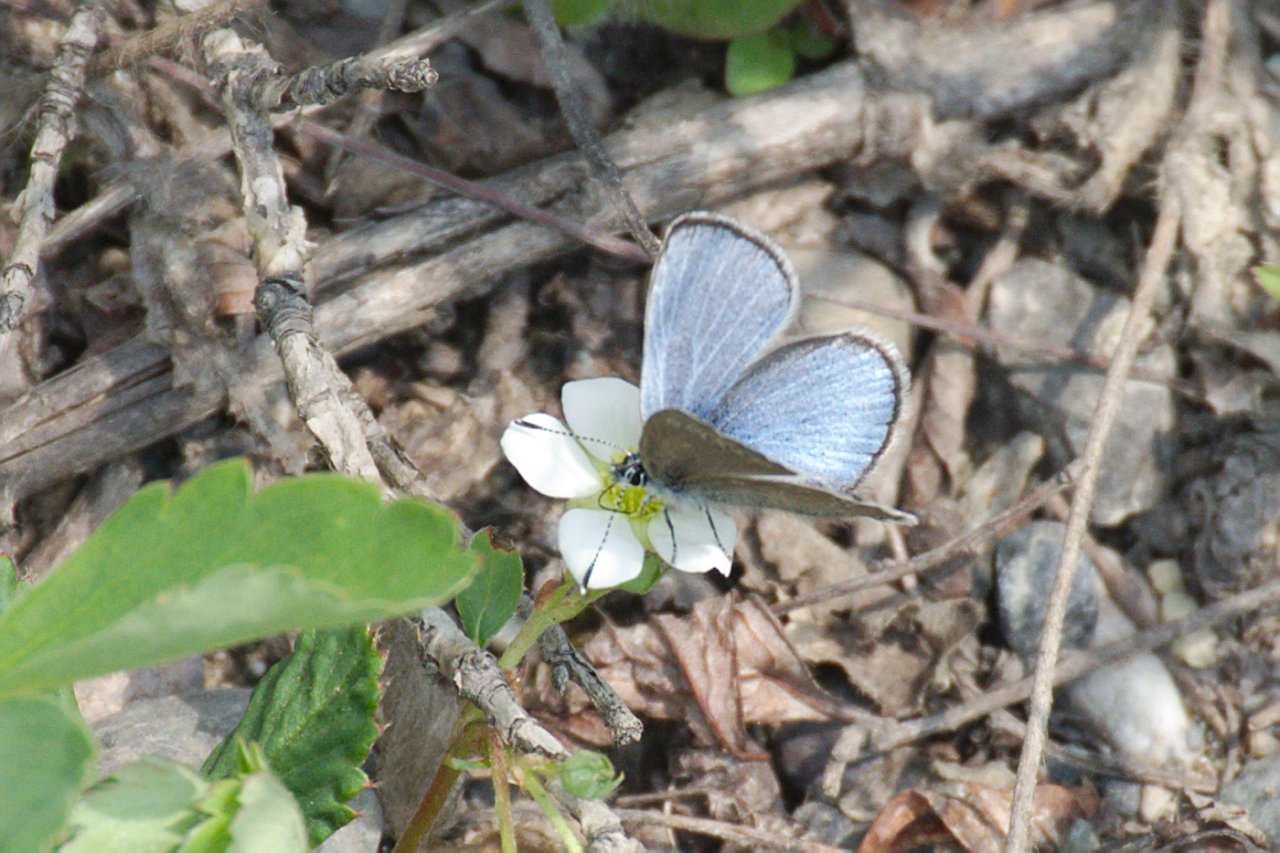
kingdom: Animalia
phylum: Arthropoda
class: Insecta
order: Lepidoptera
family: Lycaenidae
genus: Glaucopsyche
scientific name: Glaucopsyche lygdamus
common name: Silvery Blue
